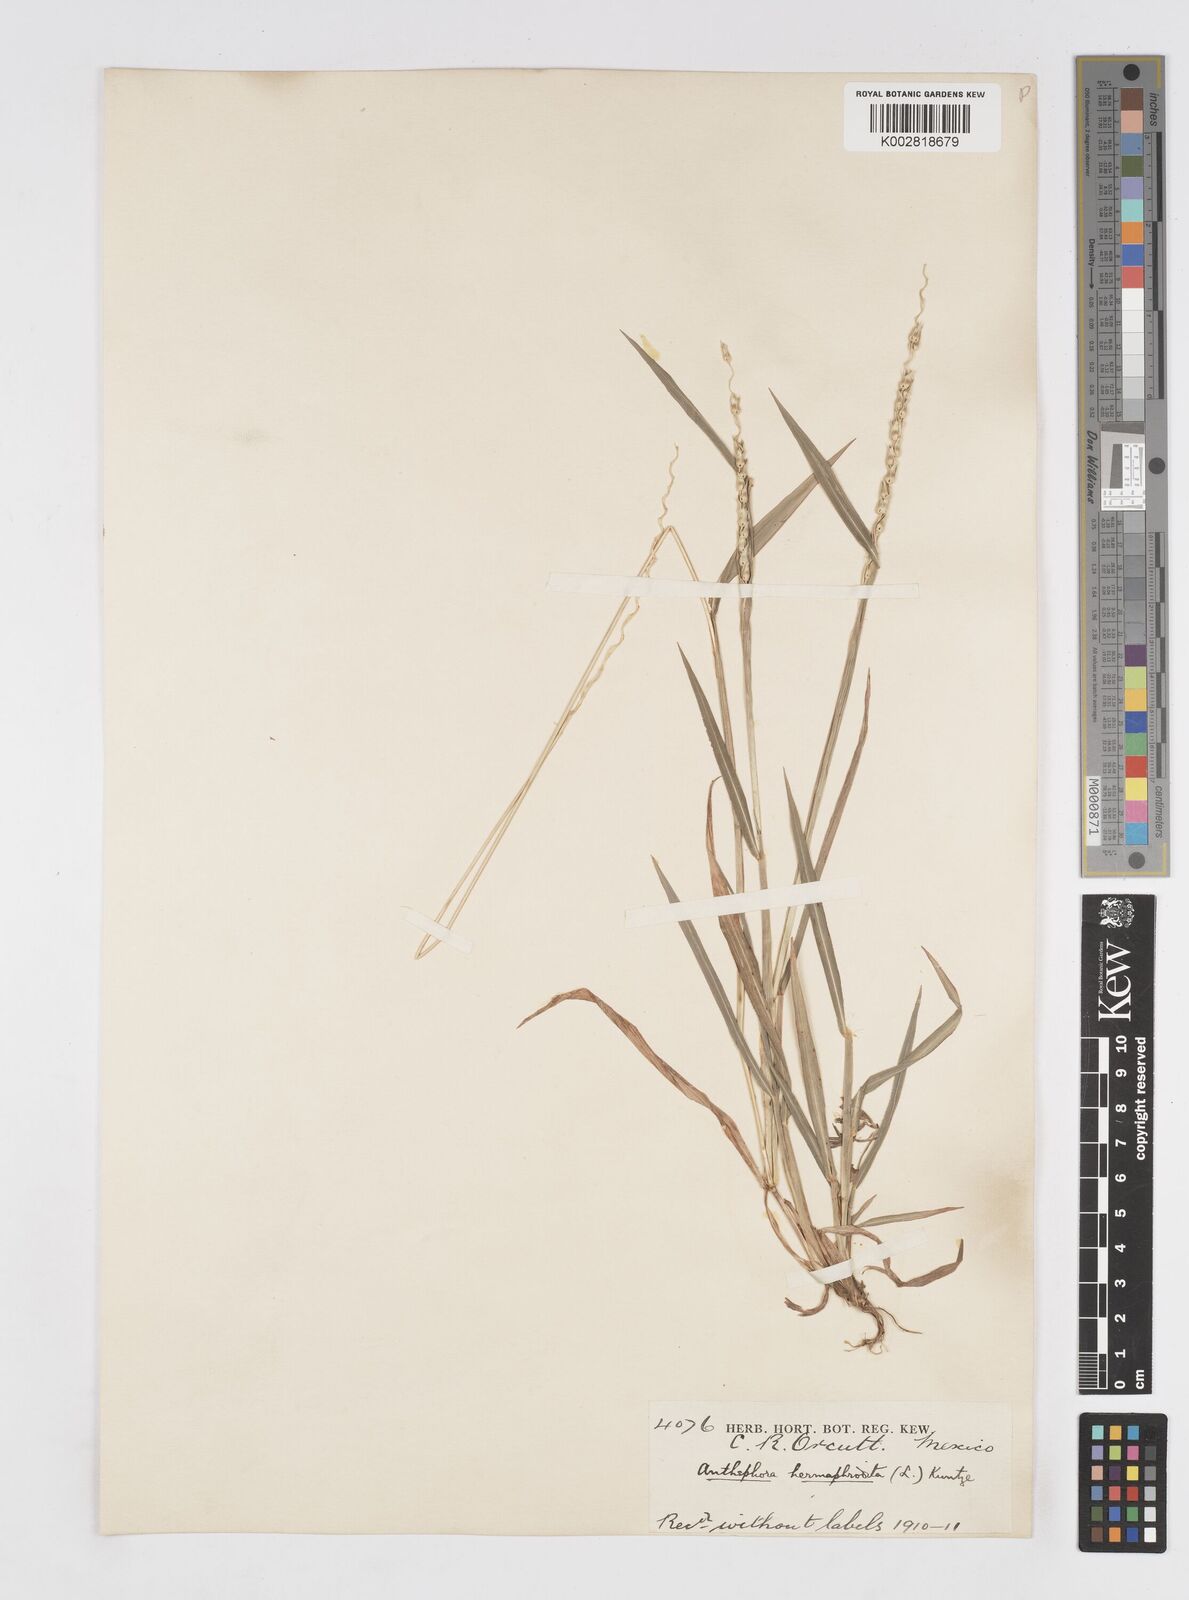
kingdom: Plantae
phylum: Tracheophyta
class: Liliopsida
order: Poales
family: Poaceae
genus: Anthephora
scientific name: Anthephora hermaphrodita
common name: Oldfield grass
